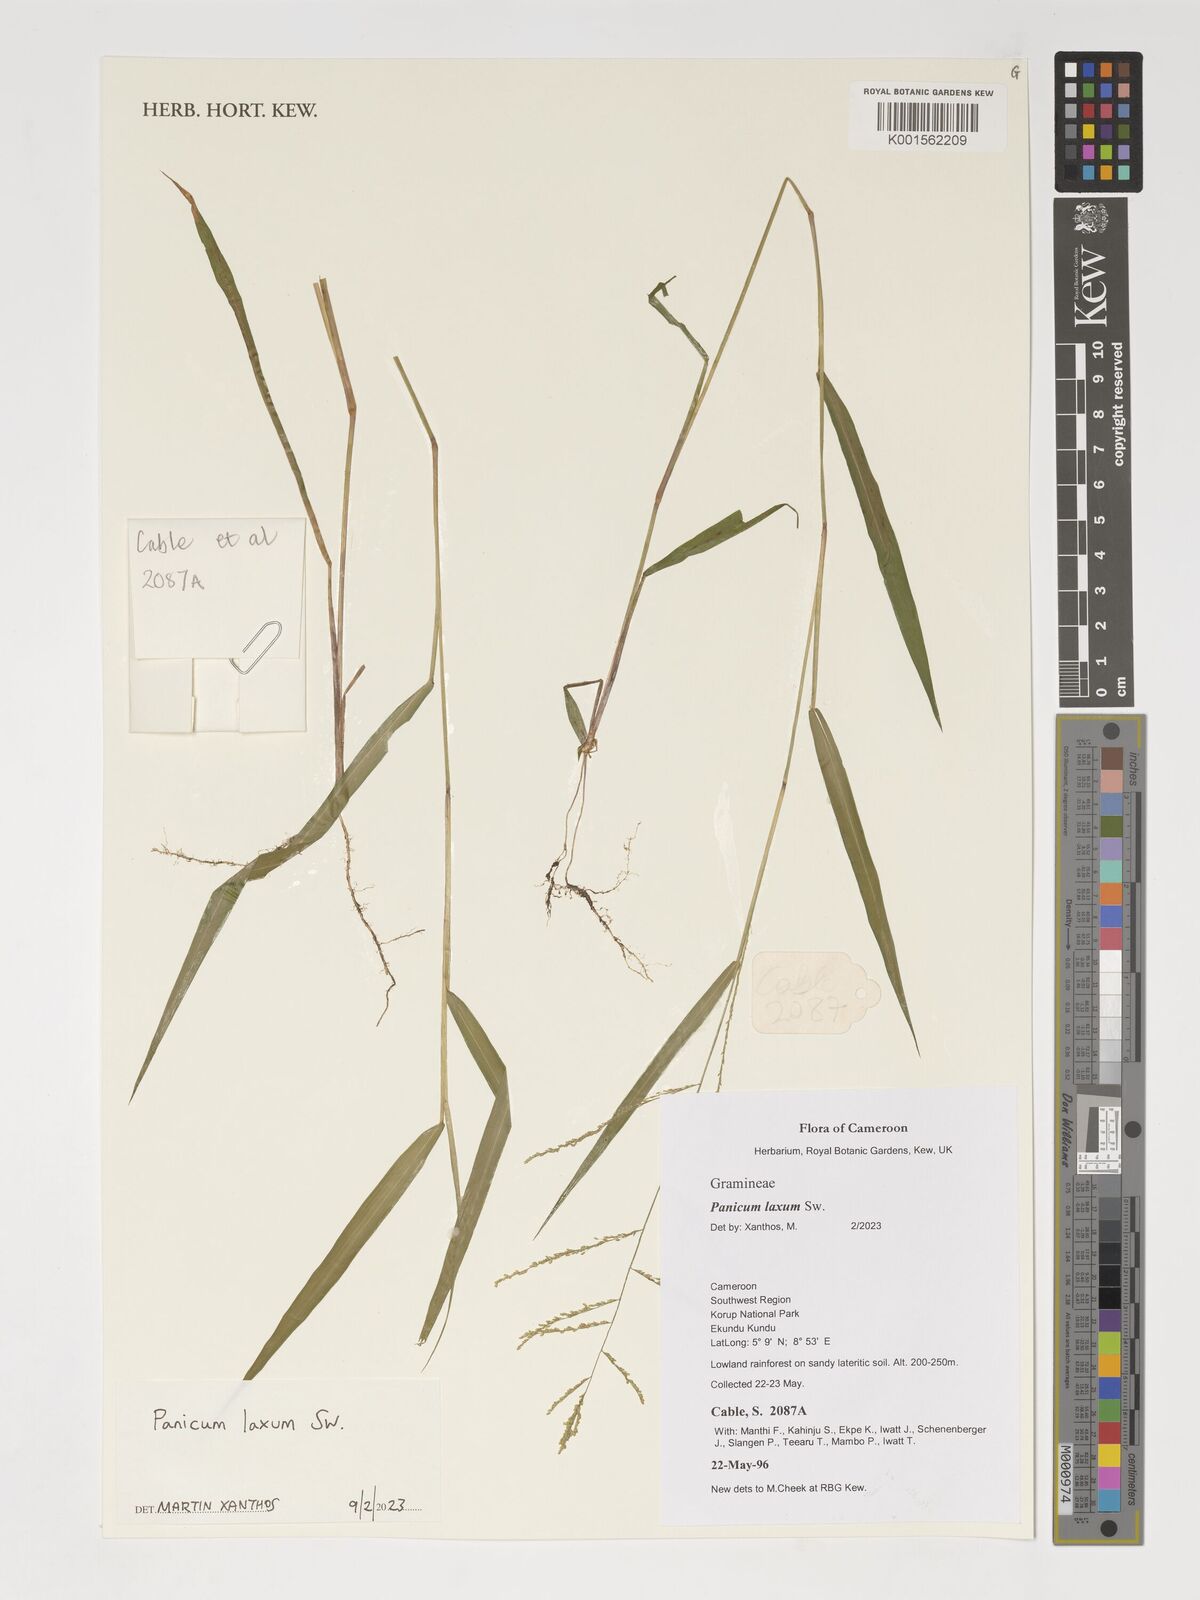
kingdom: Plantae
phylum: Tracheophyta
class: Liliopsida
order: Poales
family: Poaceae
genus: Steinchisma
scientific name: Steinchisma laxum
